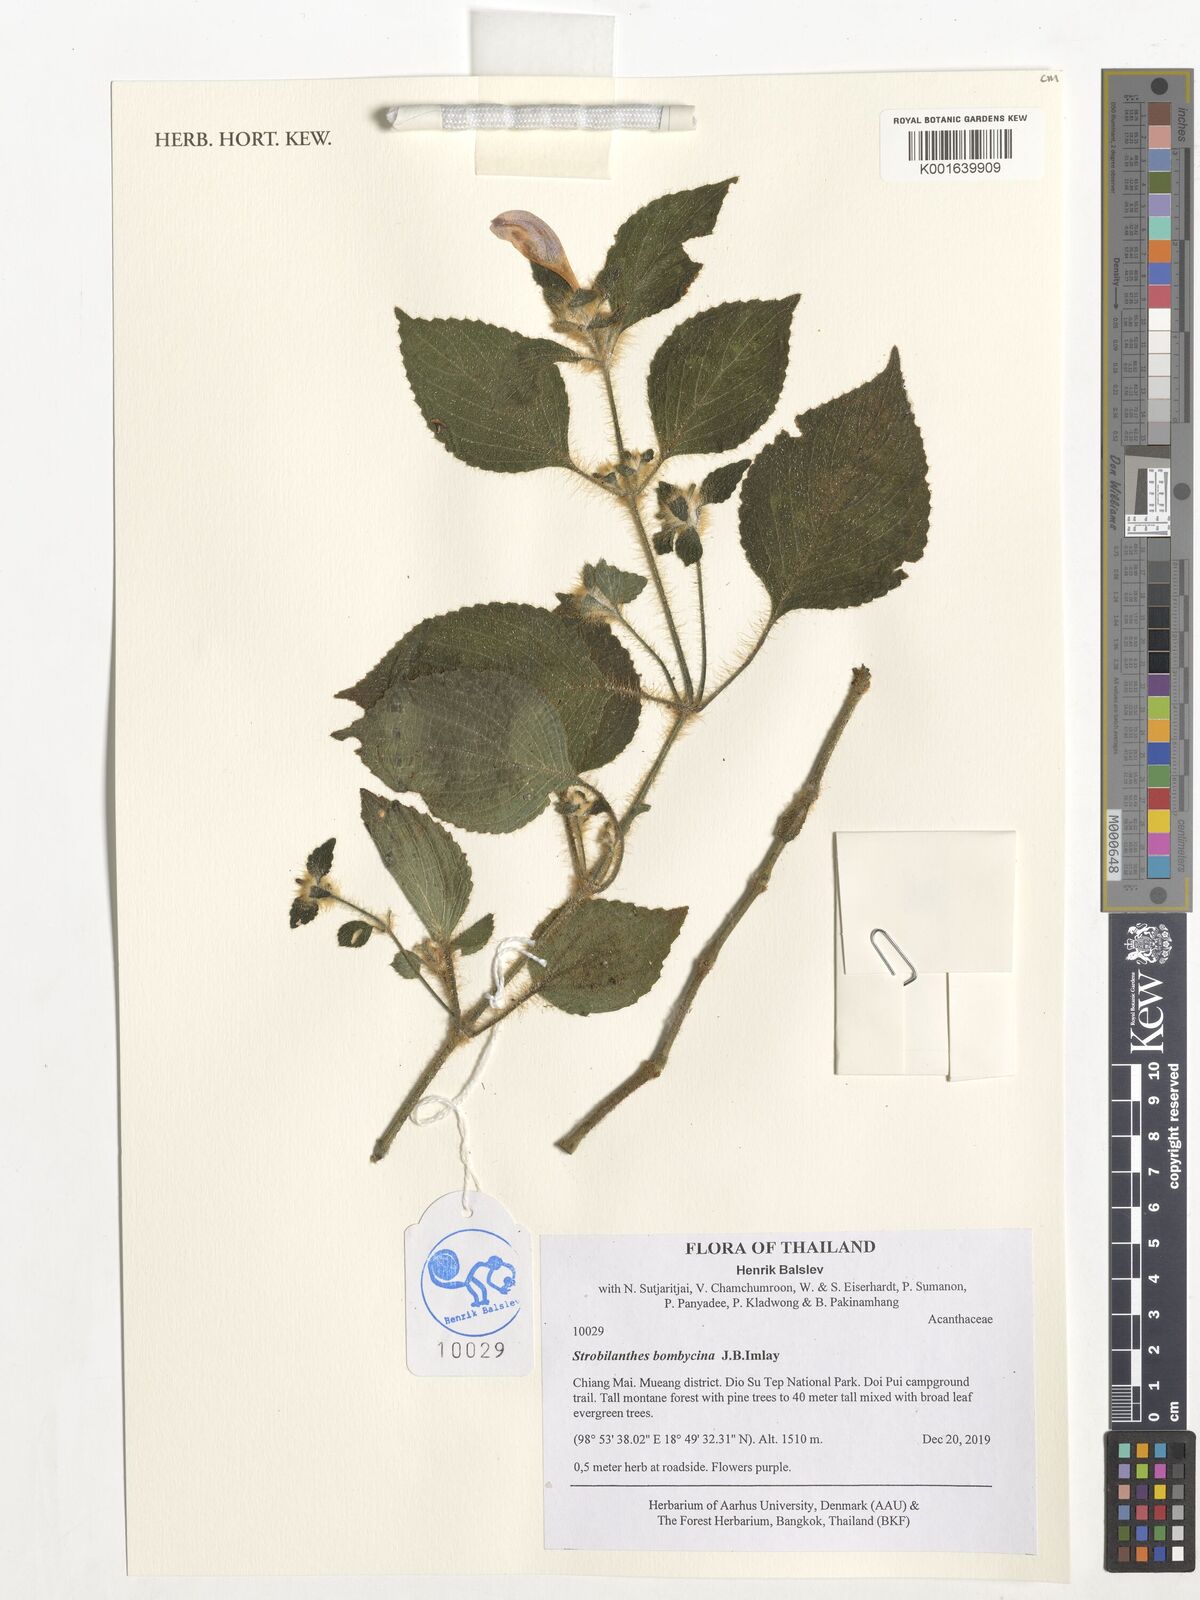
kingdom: Plantae
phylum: Tracheophyta
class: Magnoliopsida
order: Lamiales
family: Acanthaceae
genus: Strobilanthes
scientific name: Strobilanthes esquirolii
